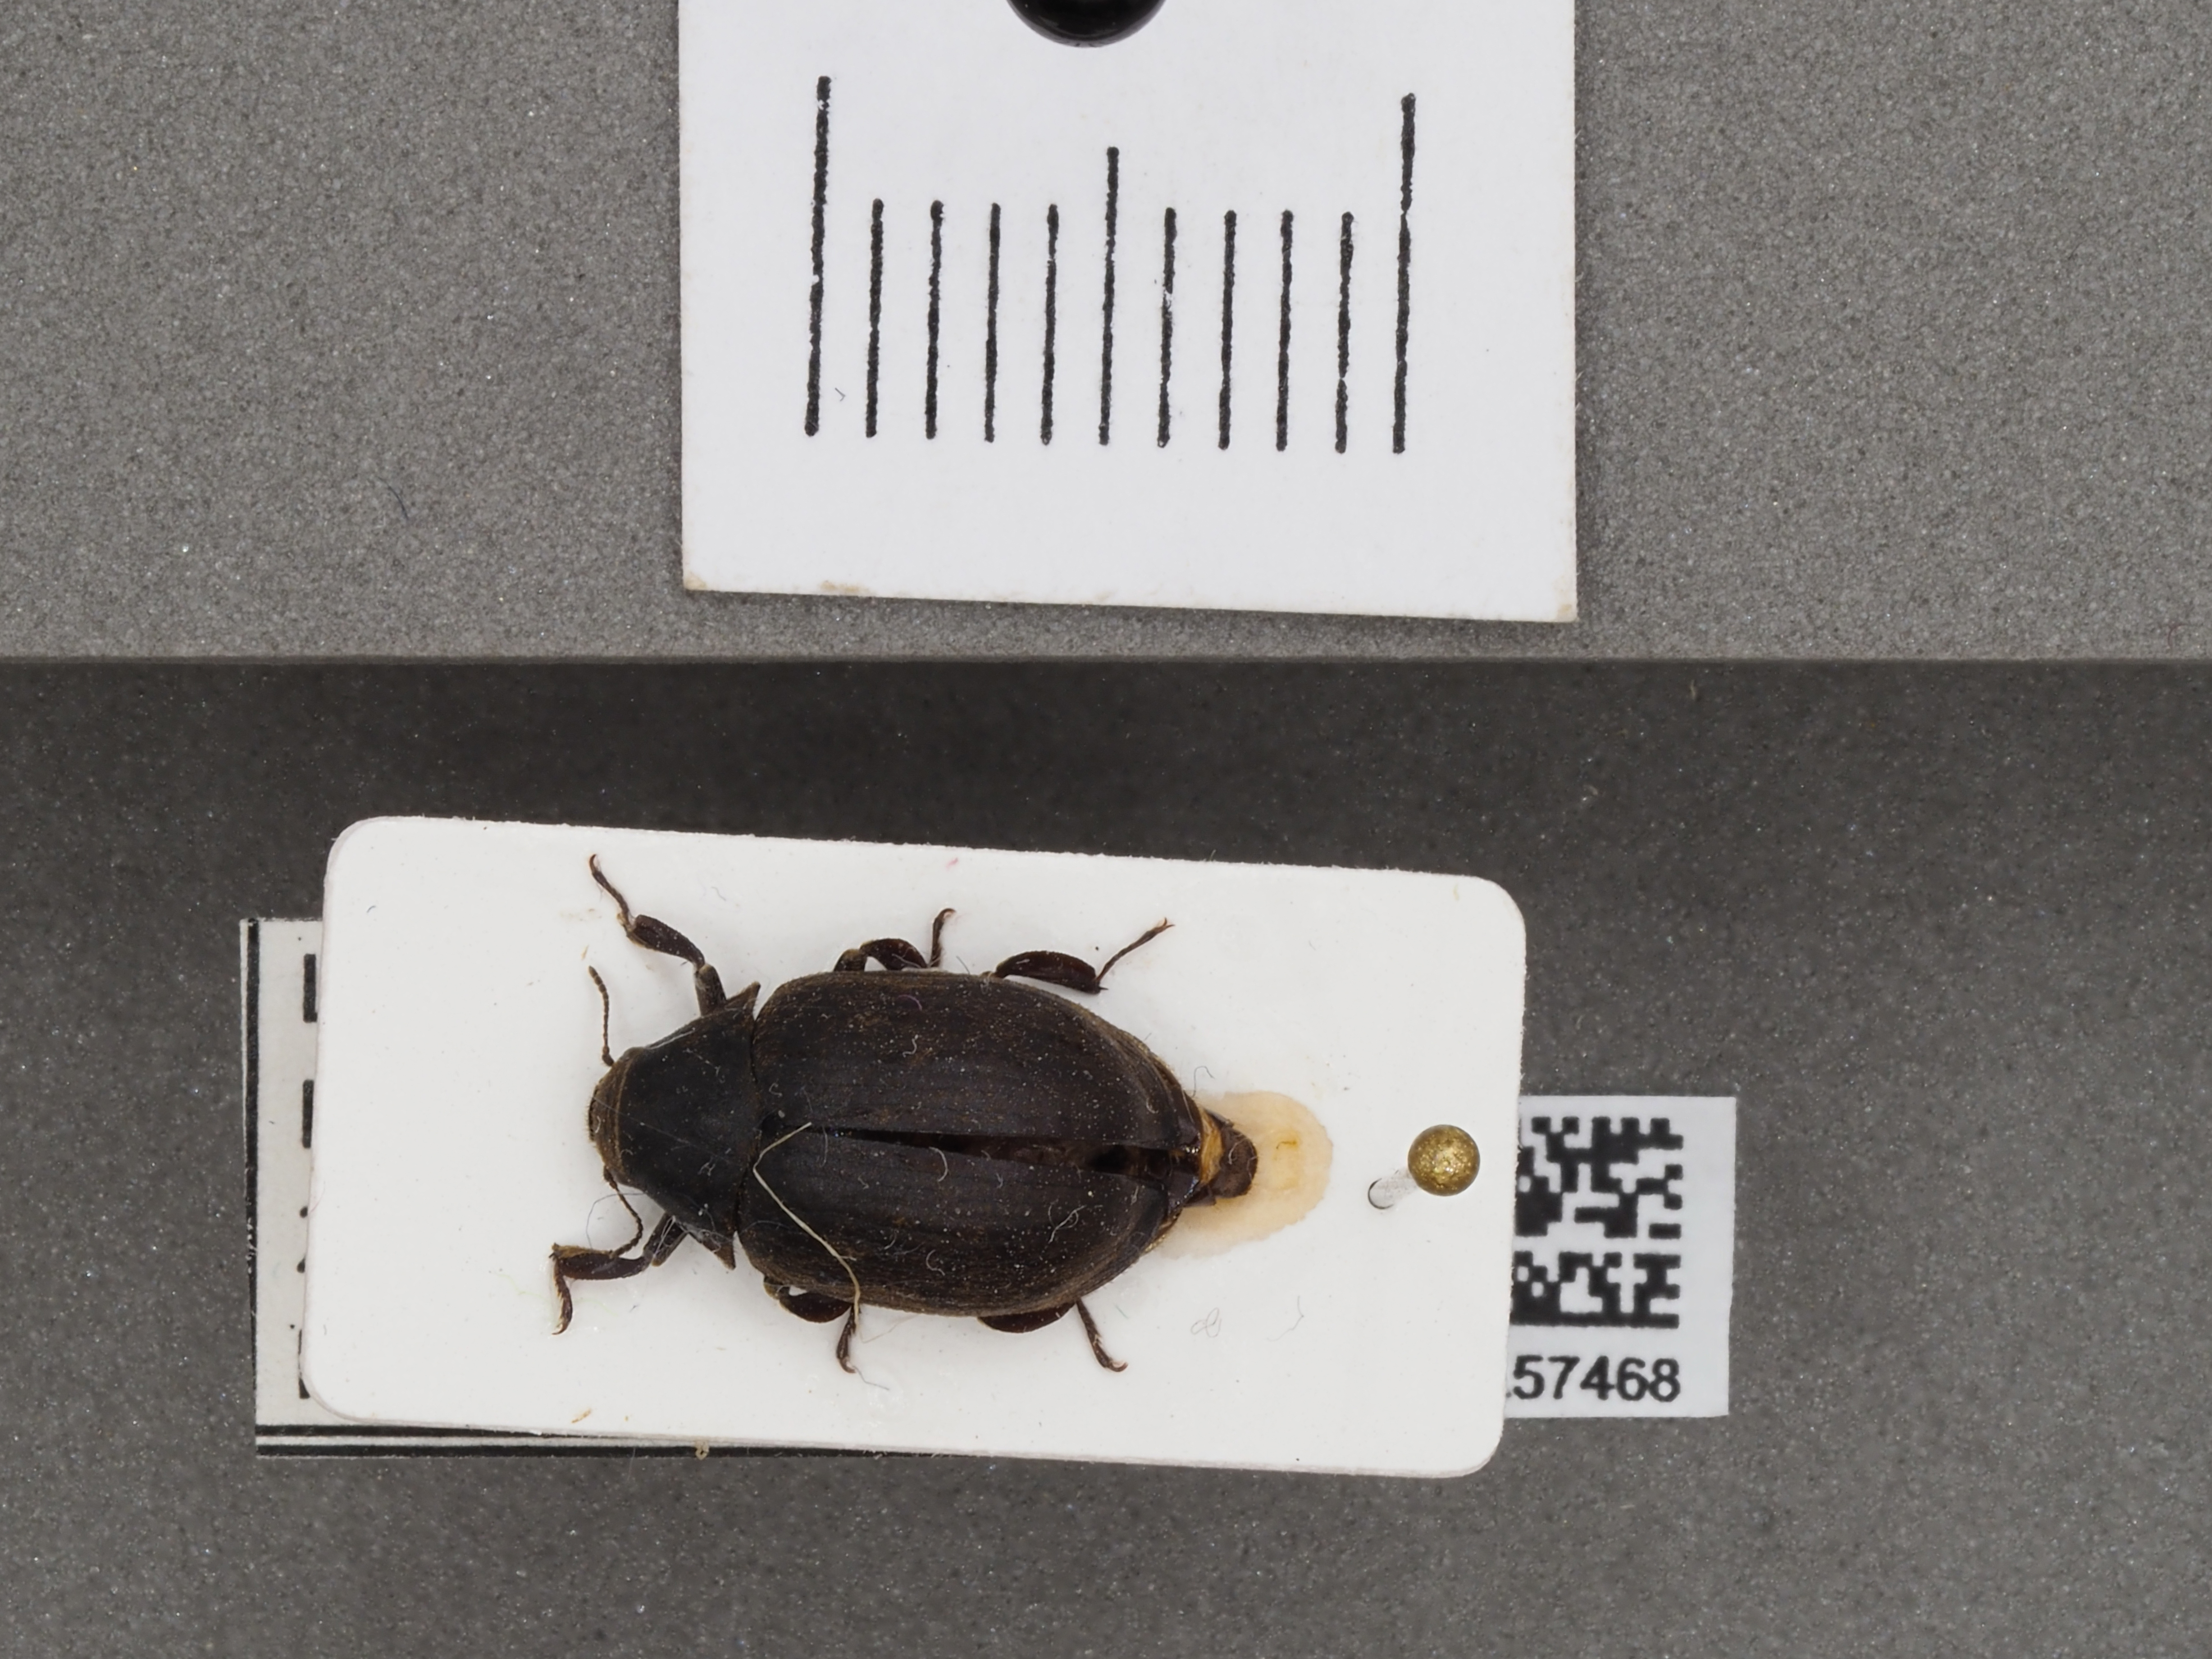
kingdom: Animalia
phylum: Arthropoda
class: Insecta
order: Coleoptera
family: Byrrhidae
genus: Byrrhus
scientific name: Byrrhus pilula
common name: Pill beetle
